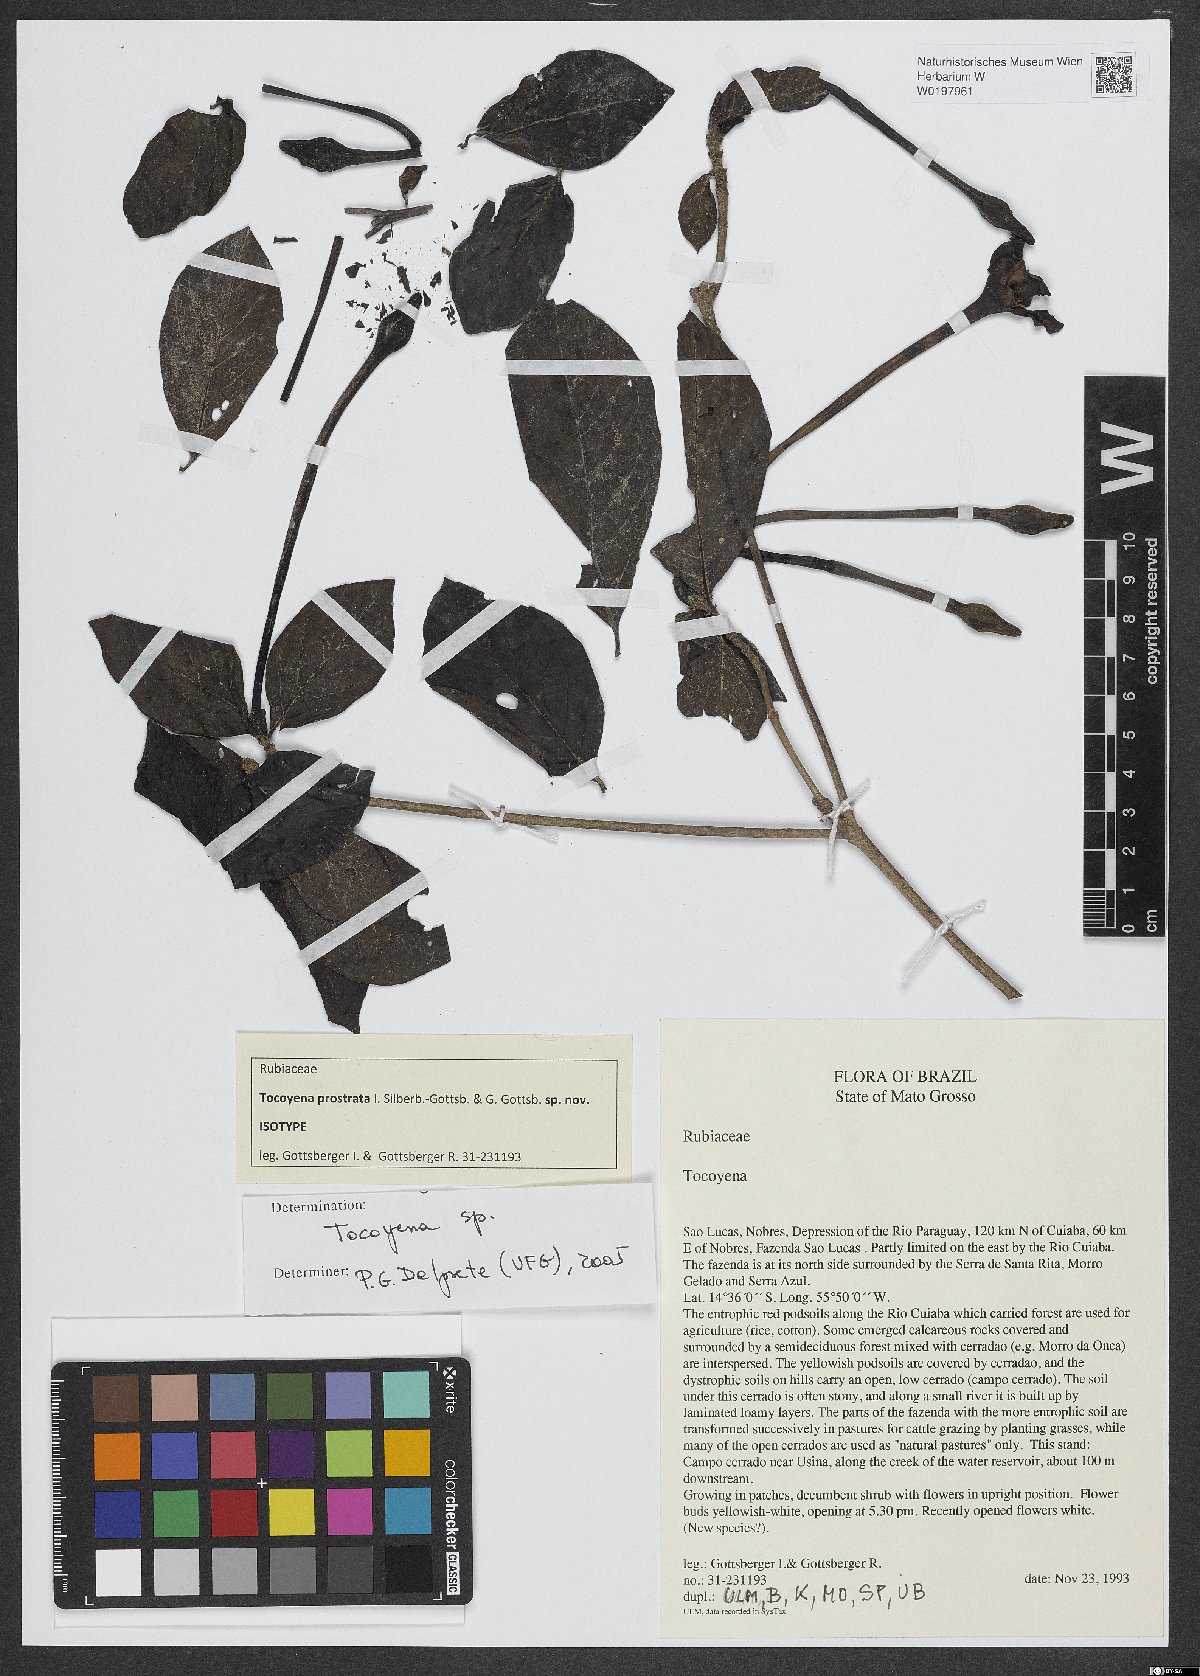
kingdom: Plantae
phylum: Tracheophyta
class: Magnoliopsida
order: Gentianales
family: Rubiaceae
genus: Tocoyena
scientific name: Tocoyena prostrata
